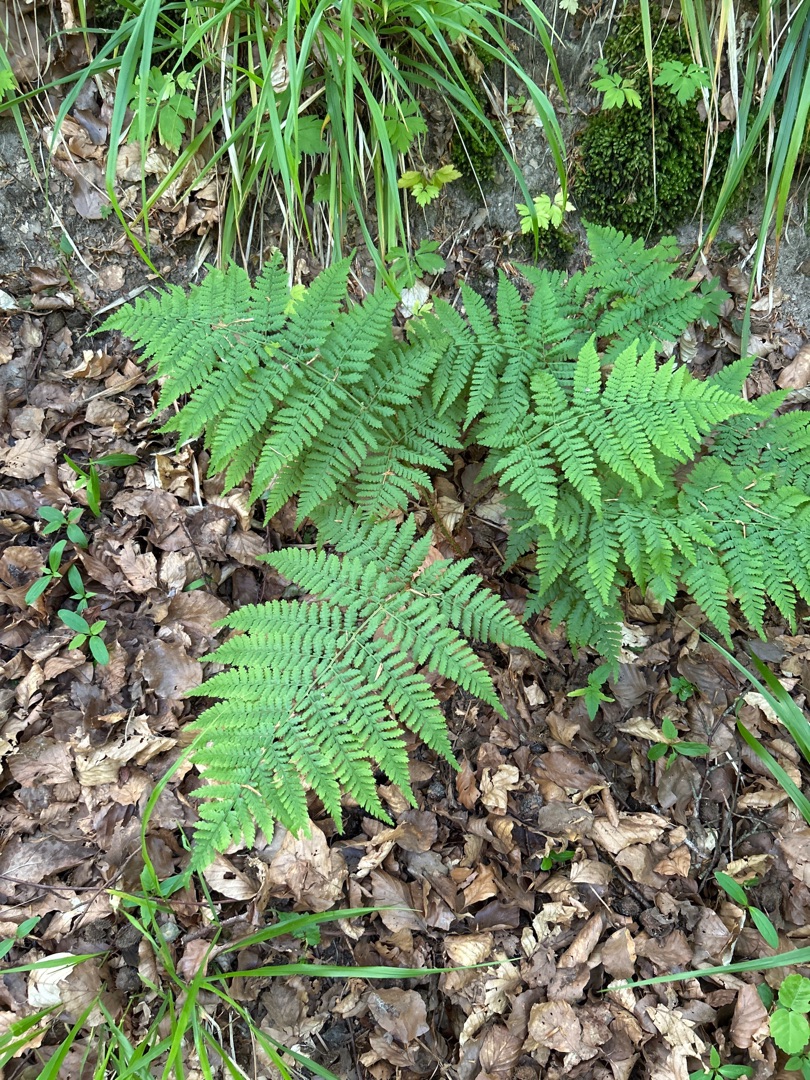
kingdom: Plantae
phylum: Tracheophyta
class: Polypodiopsida
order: Polypodiales
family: Dryopteridaceae
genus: Dryopteris
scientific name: Dryopteris dilatata
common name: Bredbladet mangeløv
